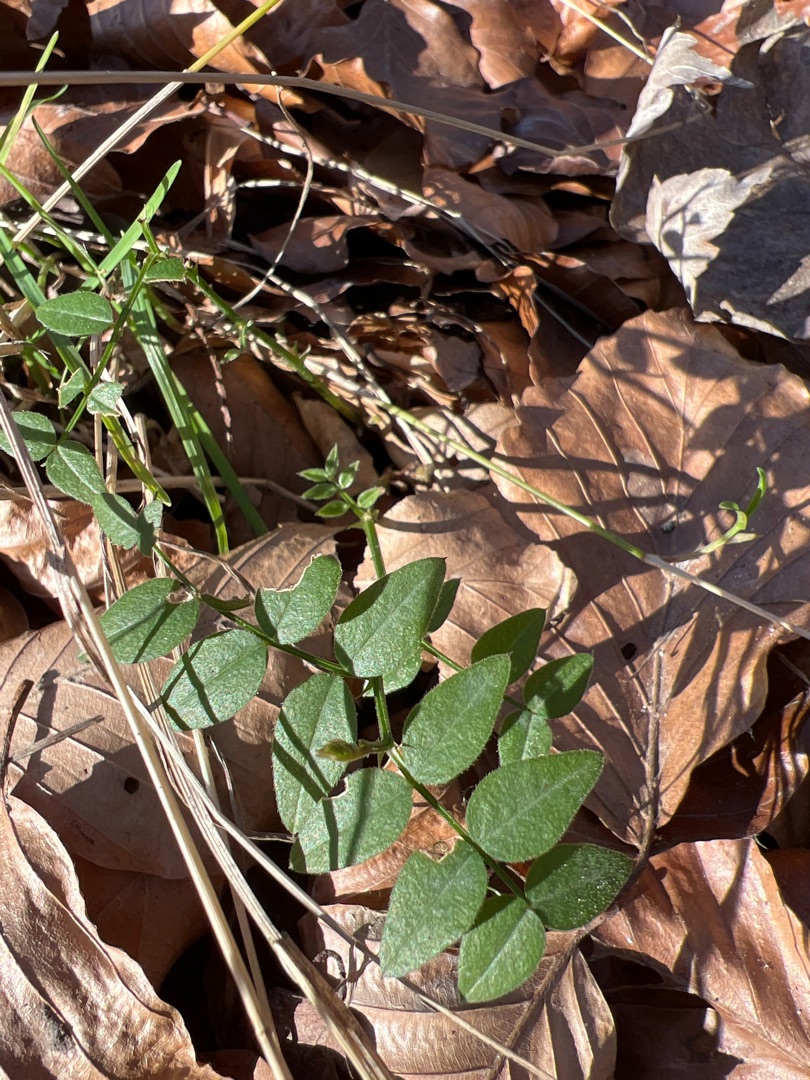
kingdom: Plantae
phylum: Tracheophyta
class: Magnoliopsida
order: Fabales
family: Fabaceae
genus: Vicia
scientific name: Vicia sepium
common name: Gærde-vikke
